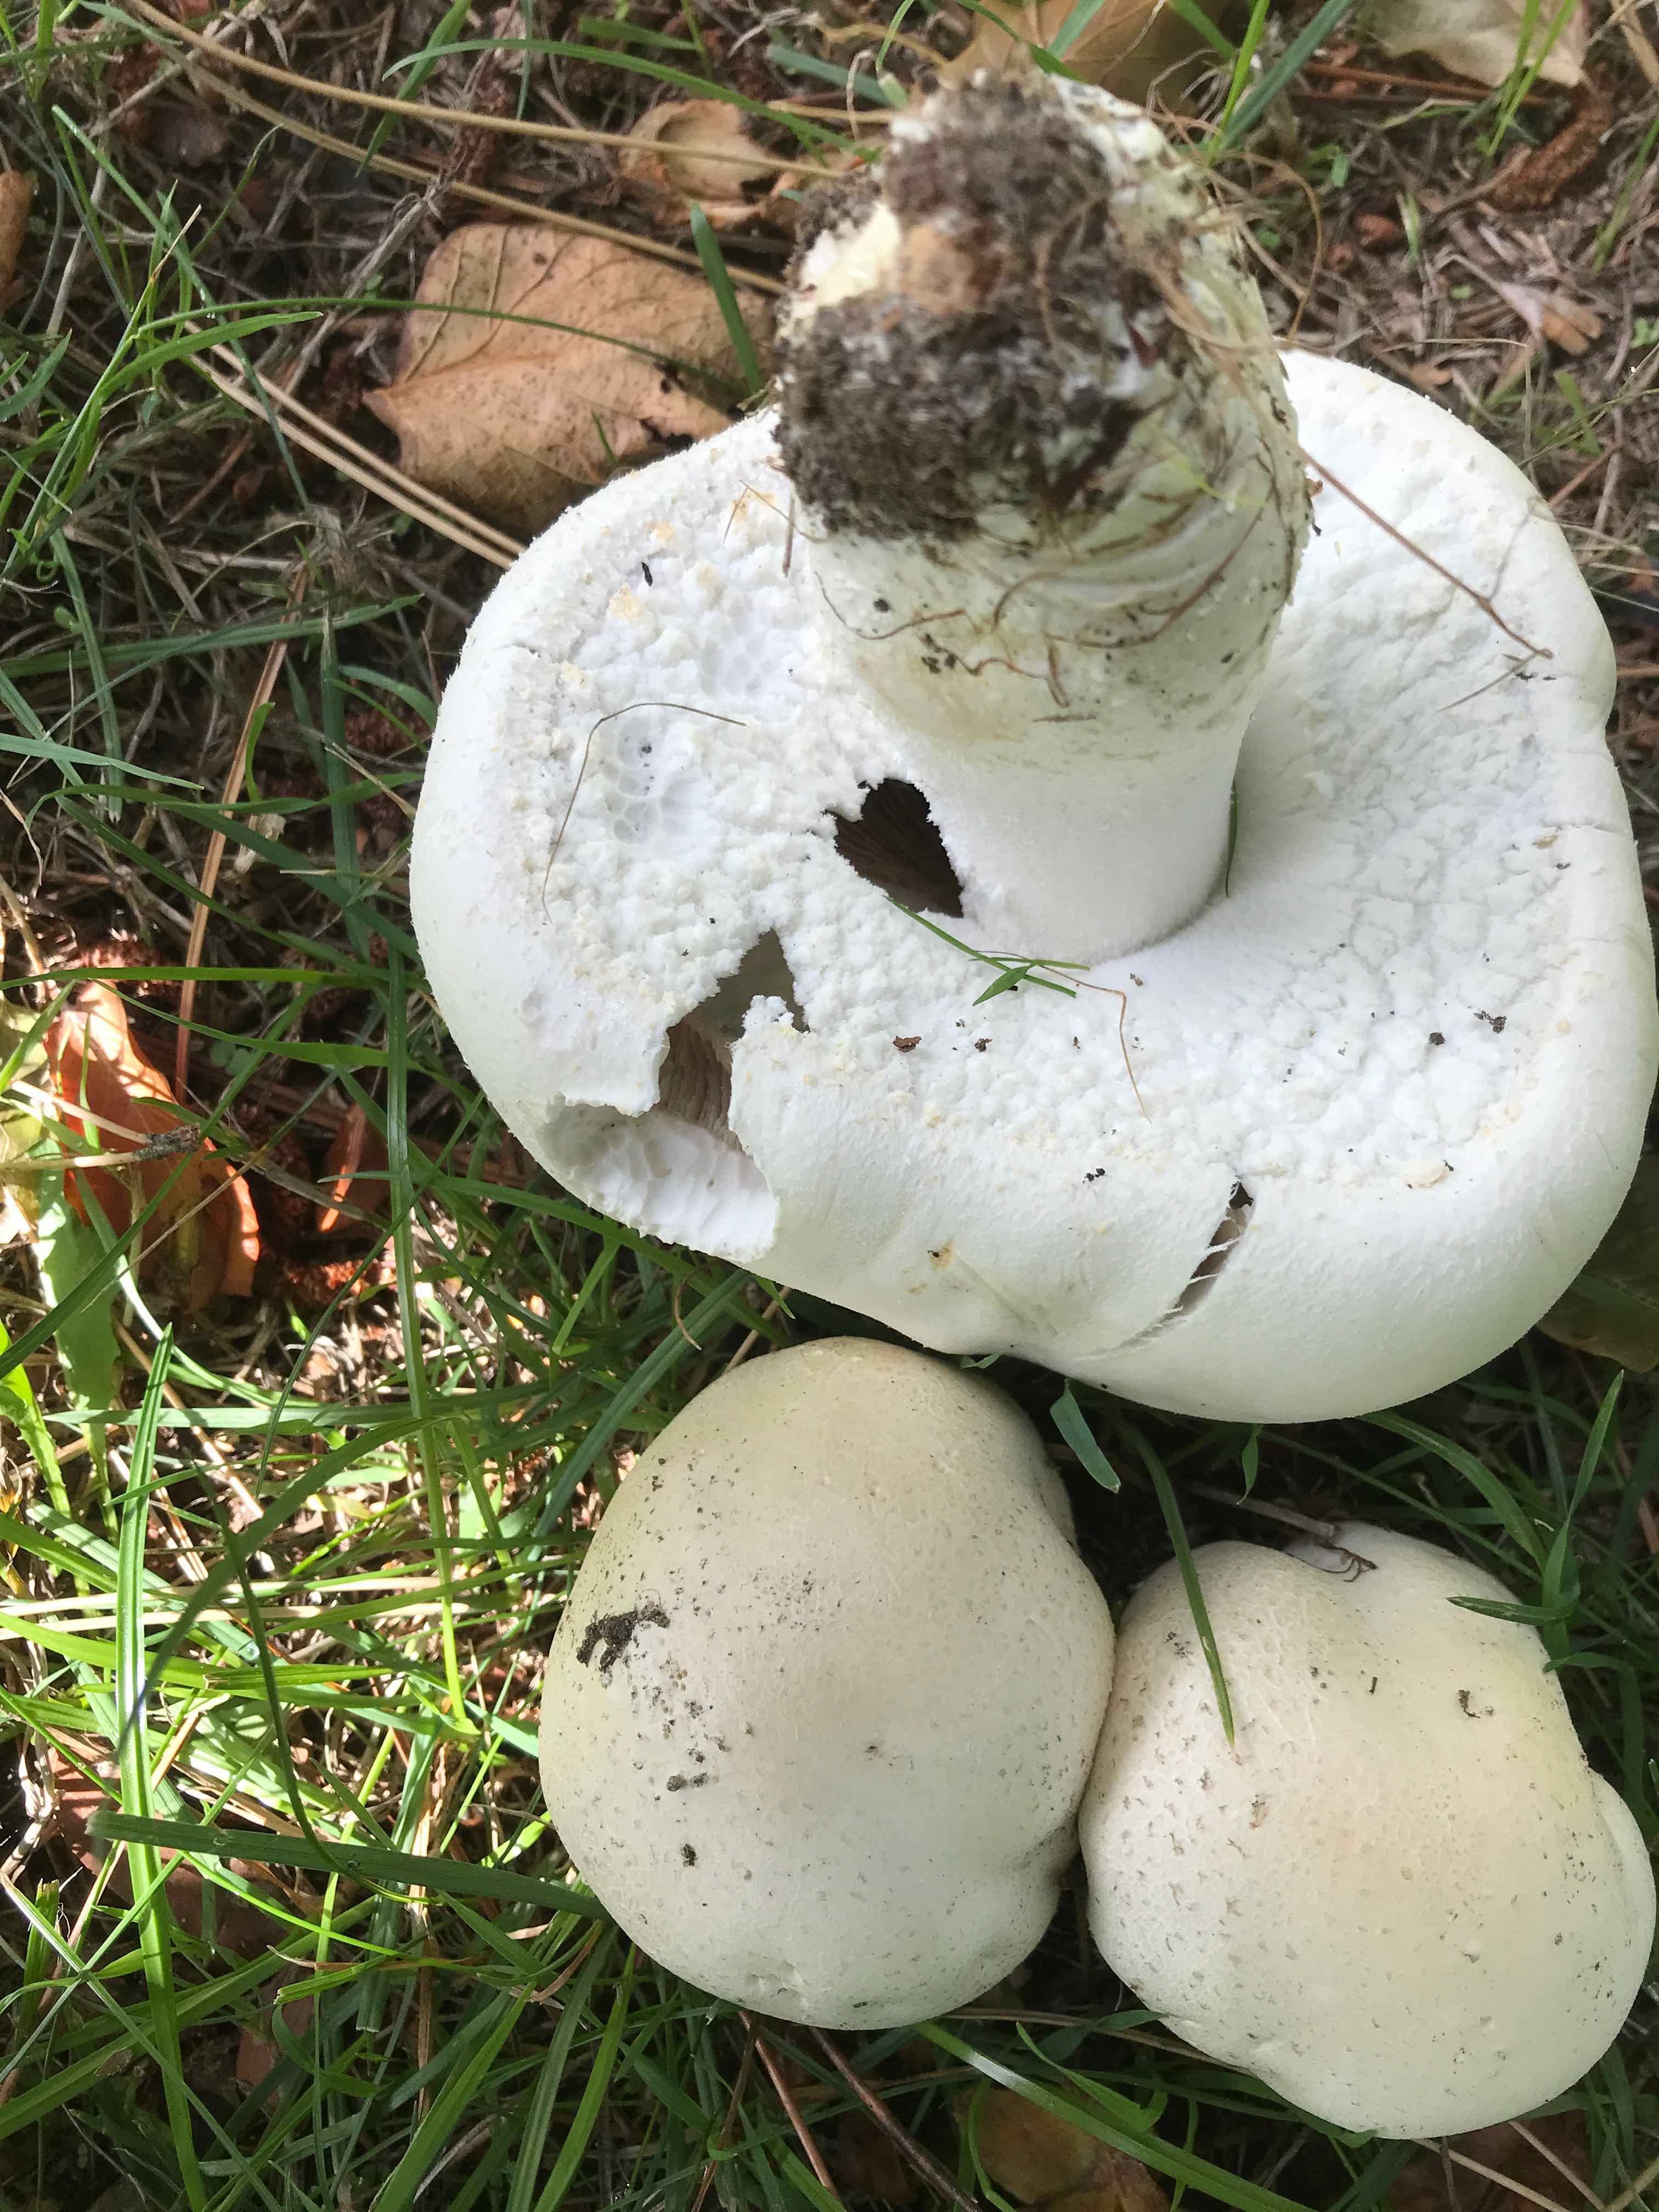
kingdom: Fungi
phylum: Basidiomycota
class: Agaricomycetes
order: Agaricales
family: Agaricaceae
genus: Agaricus
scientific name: Agaricus arvensis
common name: ager-champignon
